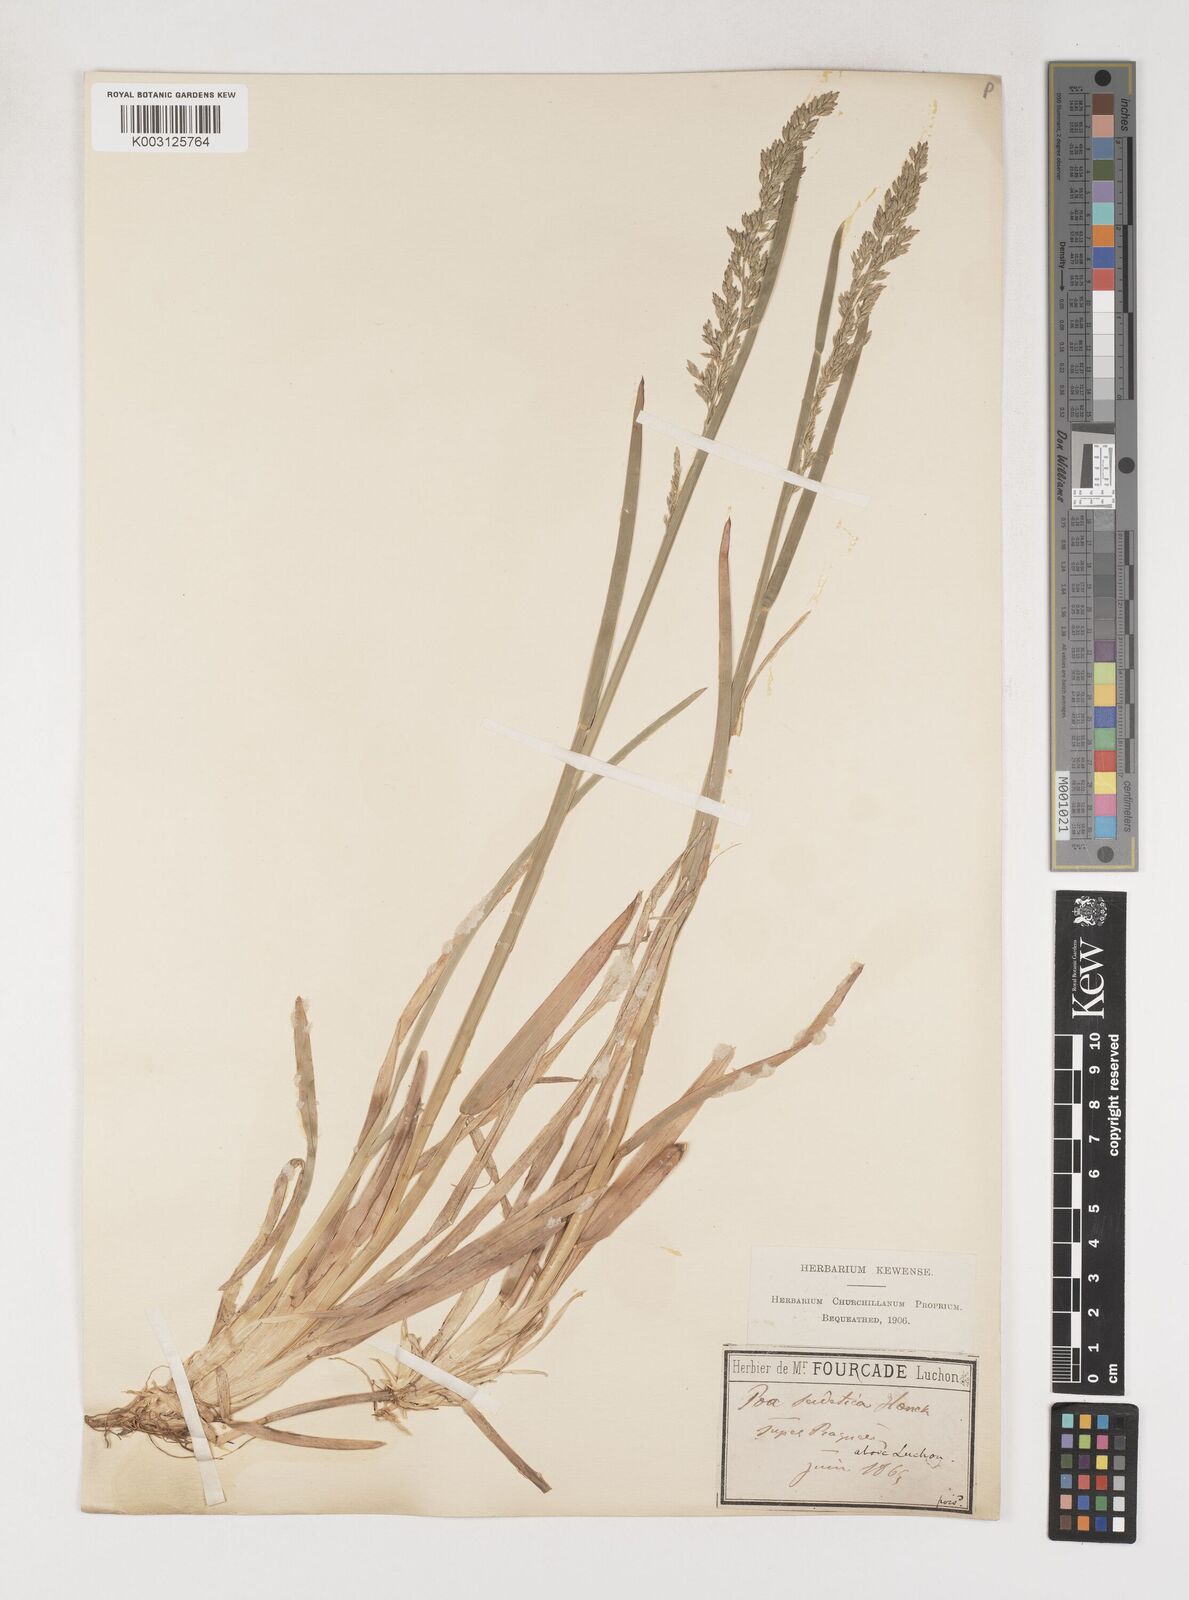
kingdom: Plantae
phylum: Tracheophyta
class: Liliopsida
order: Poales
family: Poaceae
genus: Poa
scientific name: Poa chaixii
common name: Broad-leaved meadow-grass
